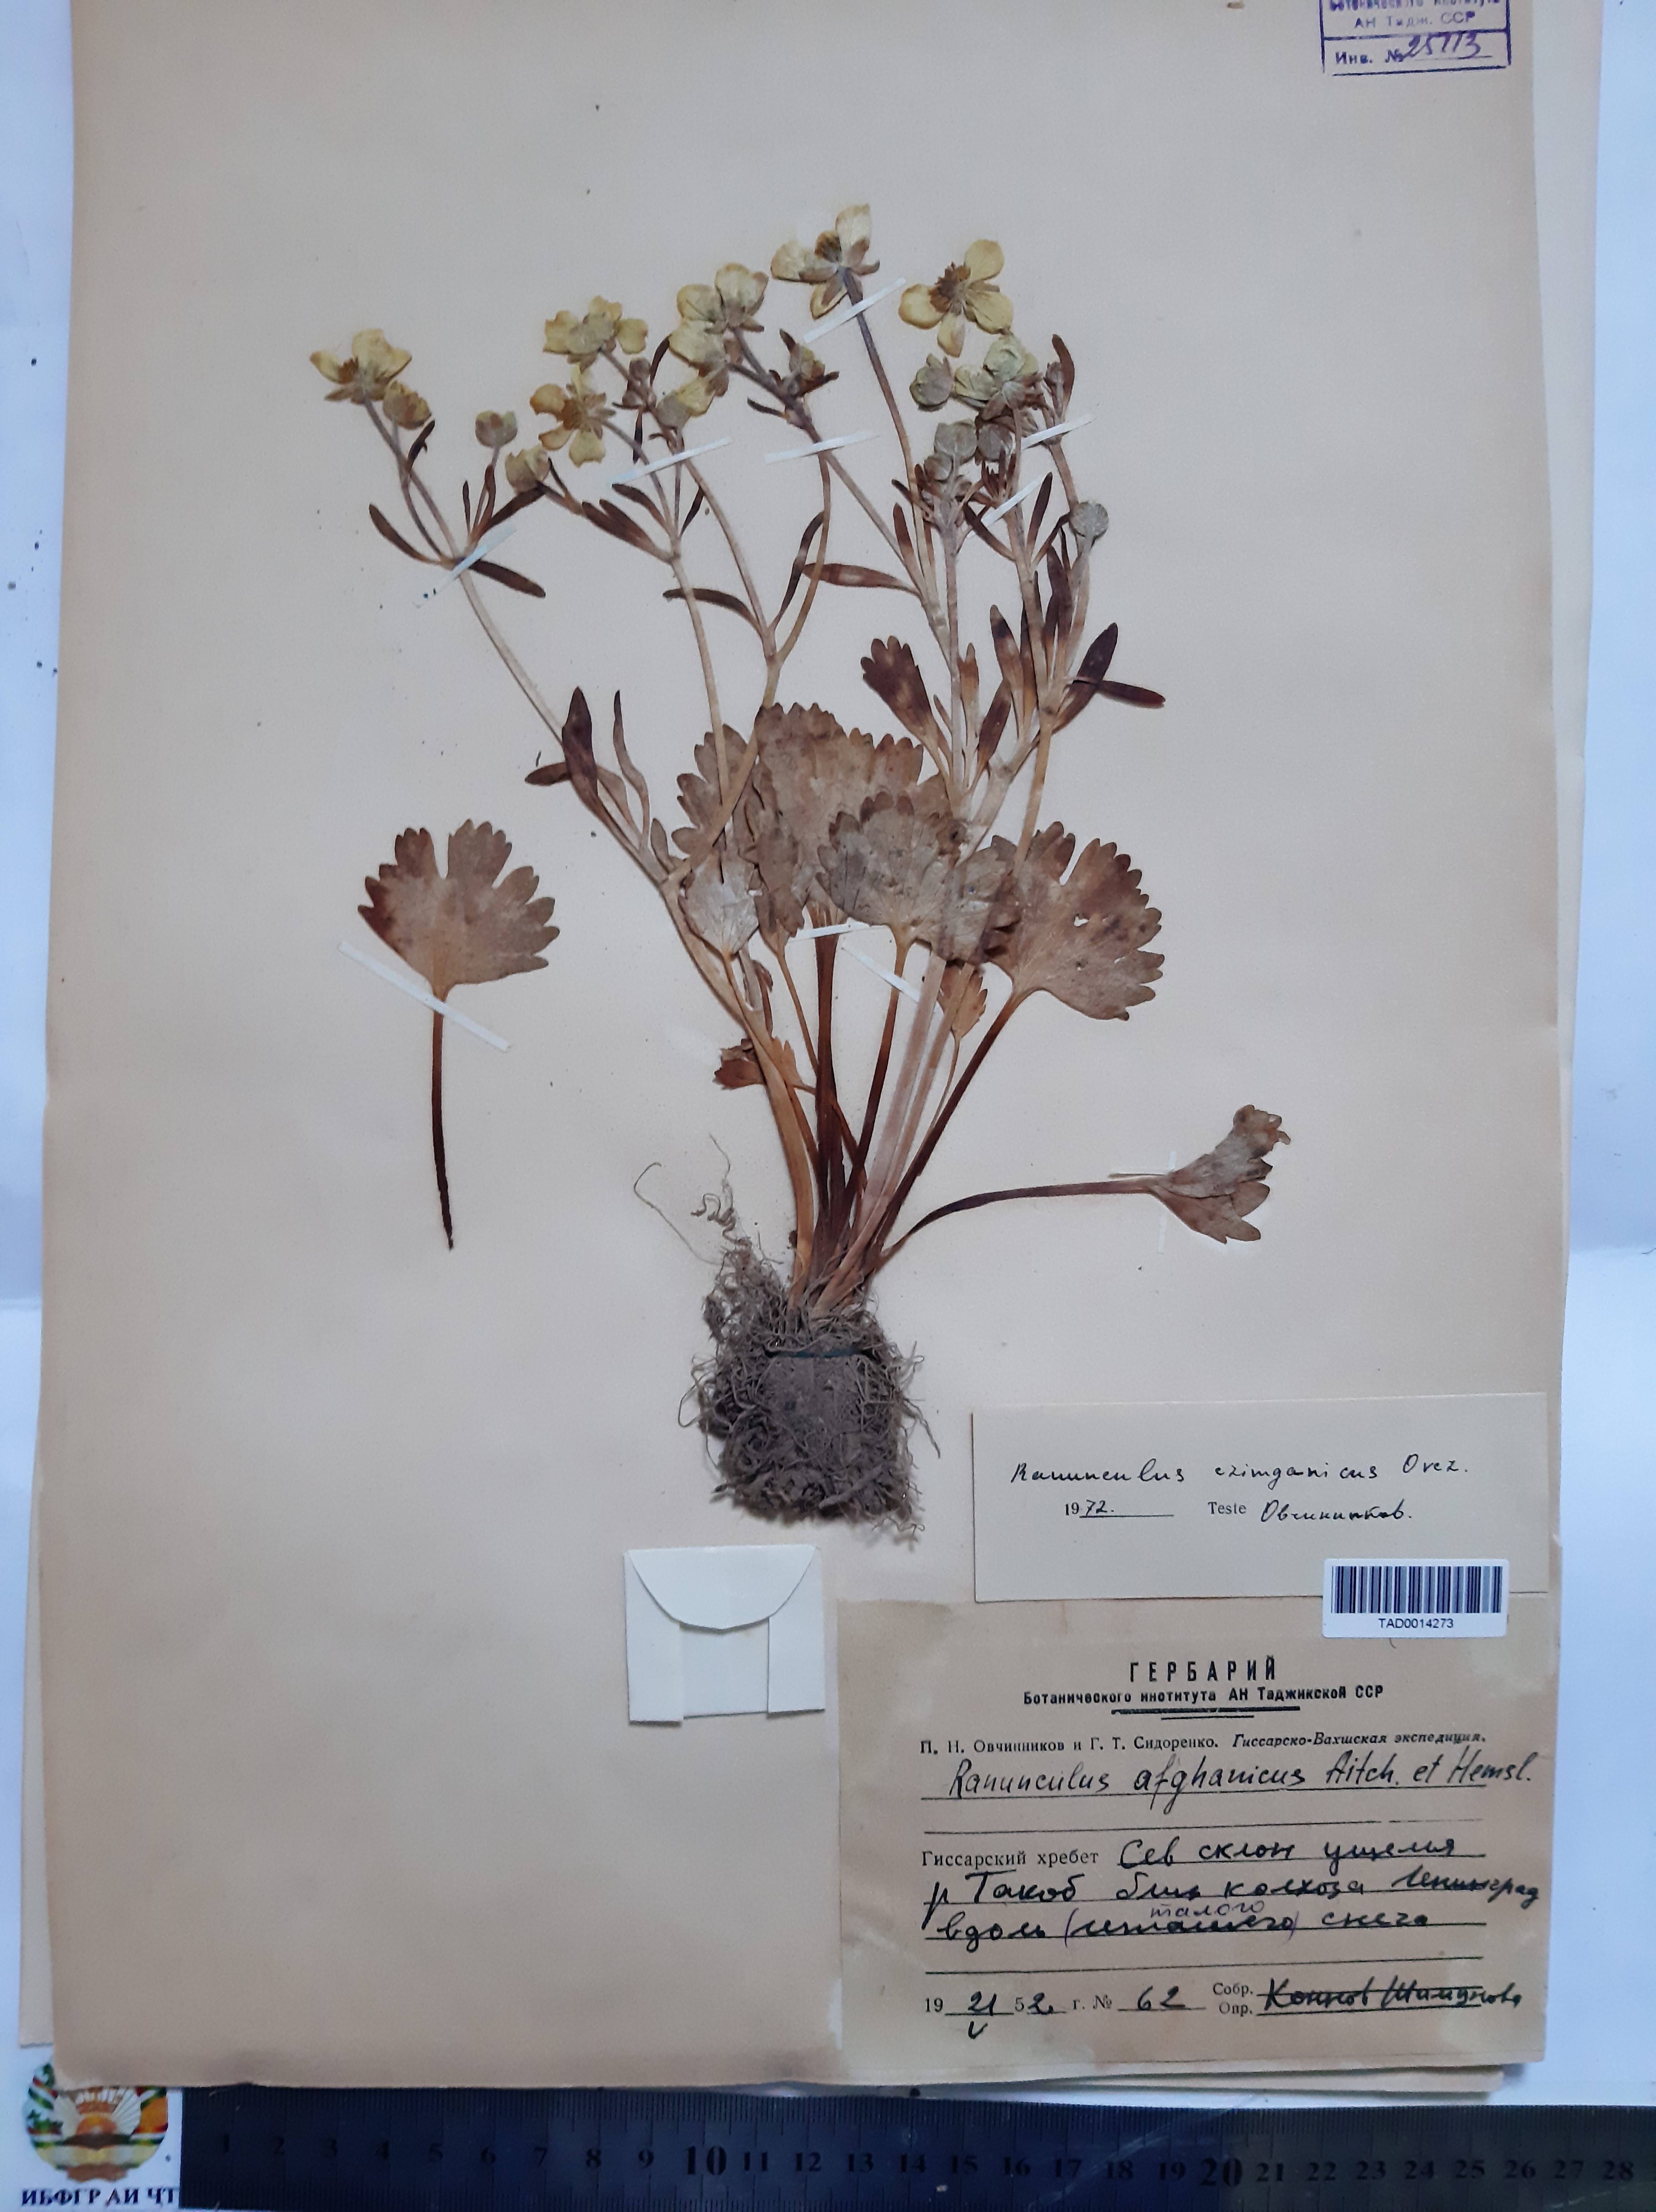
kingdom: Plantae
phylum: Tracheophyta
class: Magnoliopsida
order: Ranunculales
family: Ranunculaceae
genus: Ranunculus
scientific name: Ranunculus afghanicus
